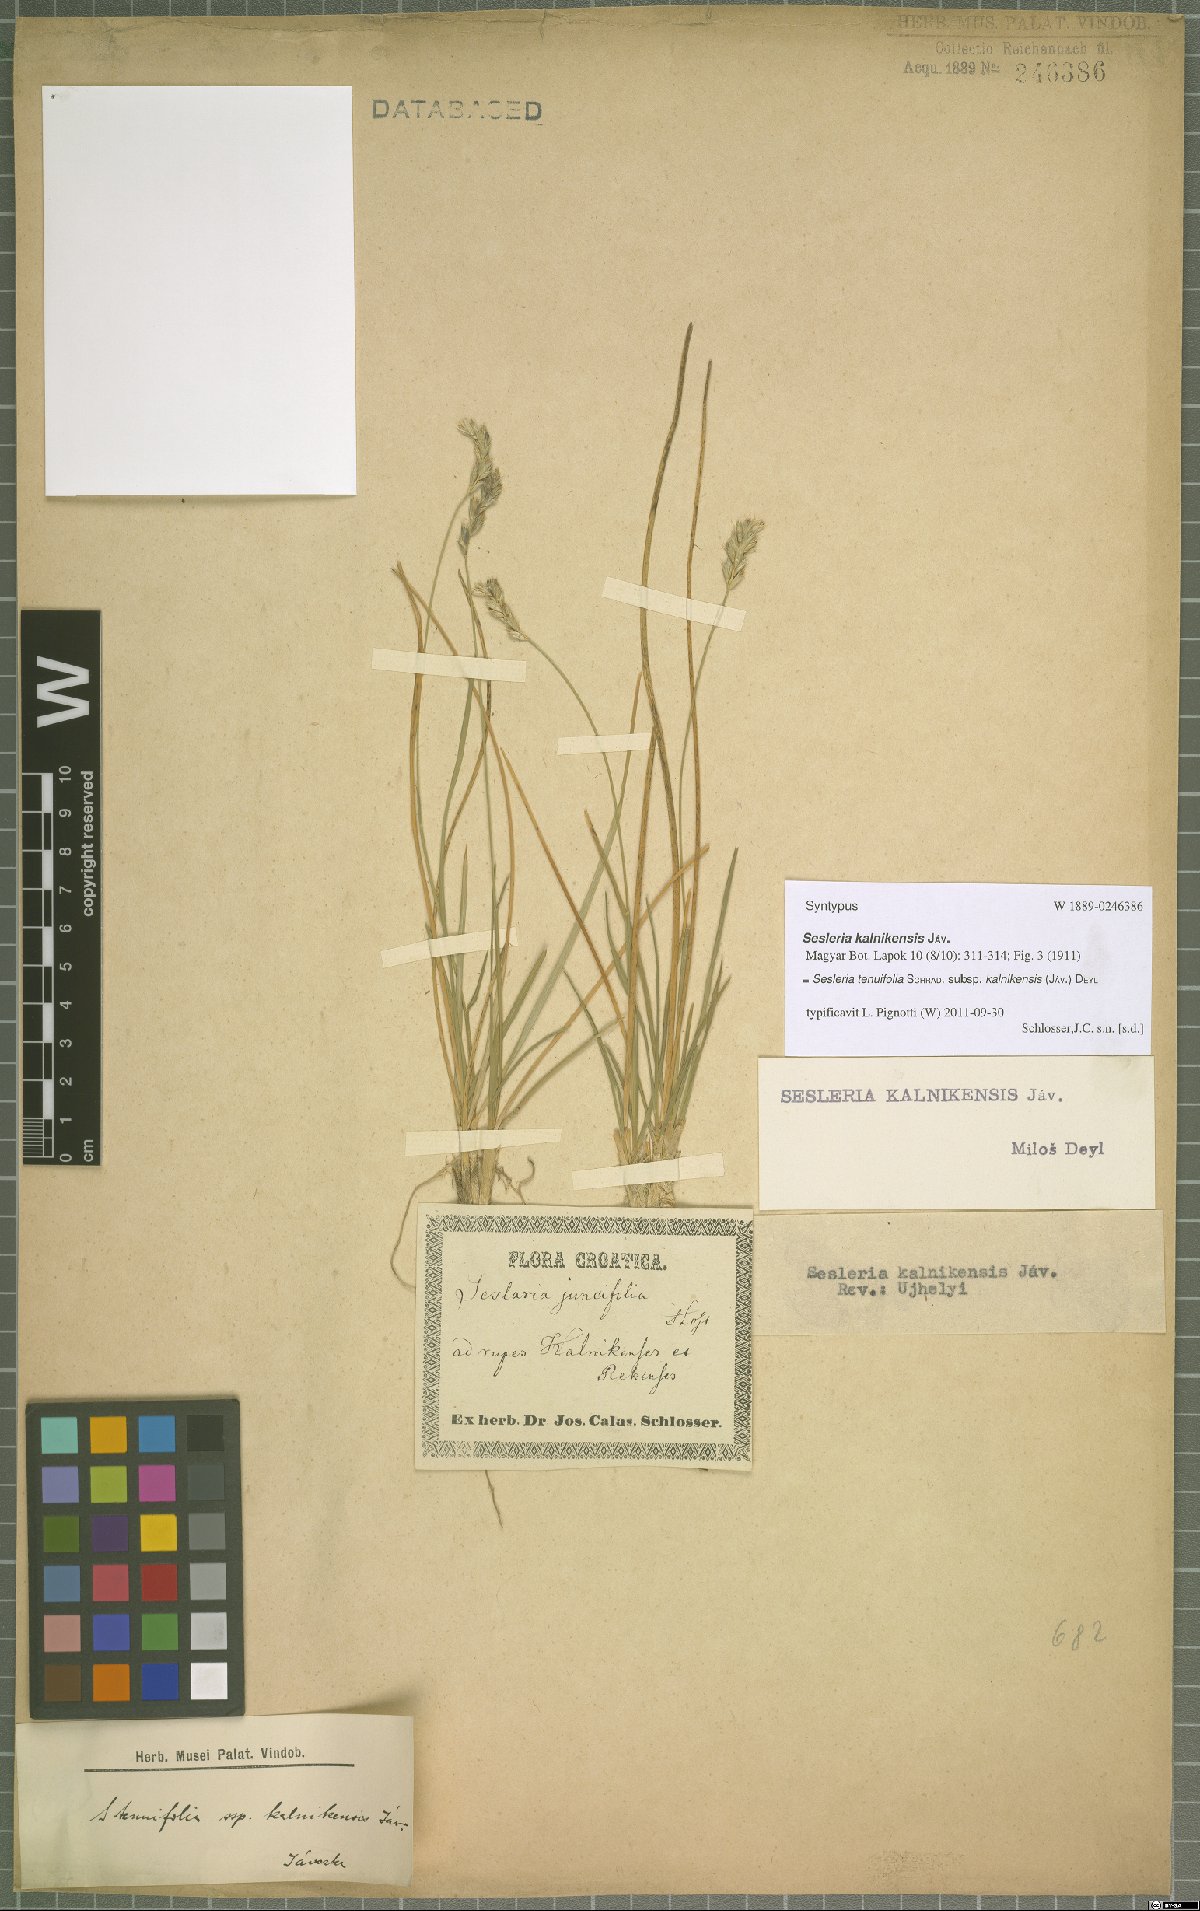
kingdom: Plantae
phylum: Tracheophyta
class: Liliopsida
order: Poales
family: Poaceae
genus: Sesleria
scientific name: Sesleria juncifolia
